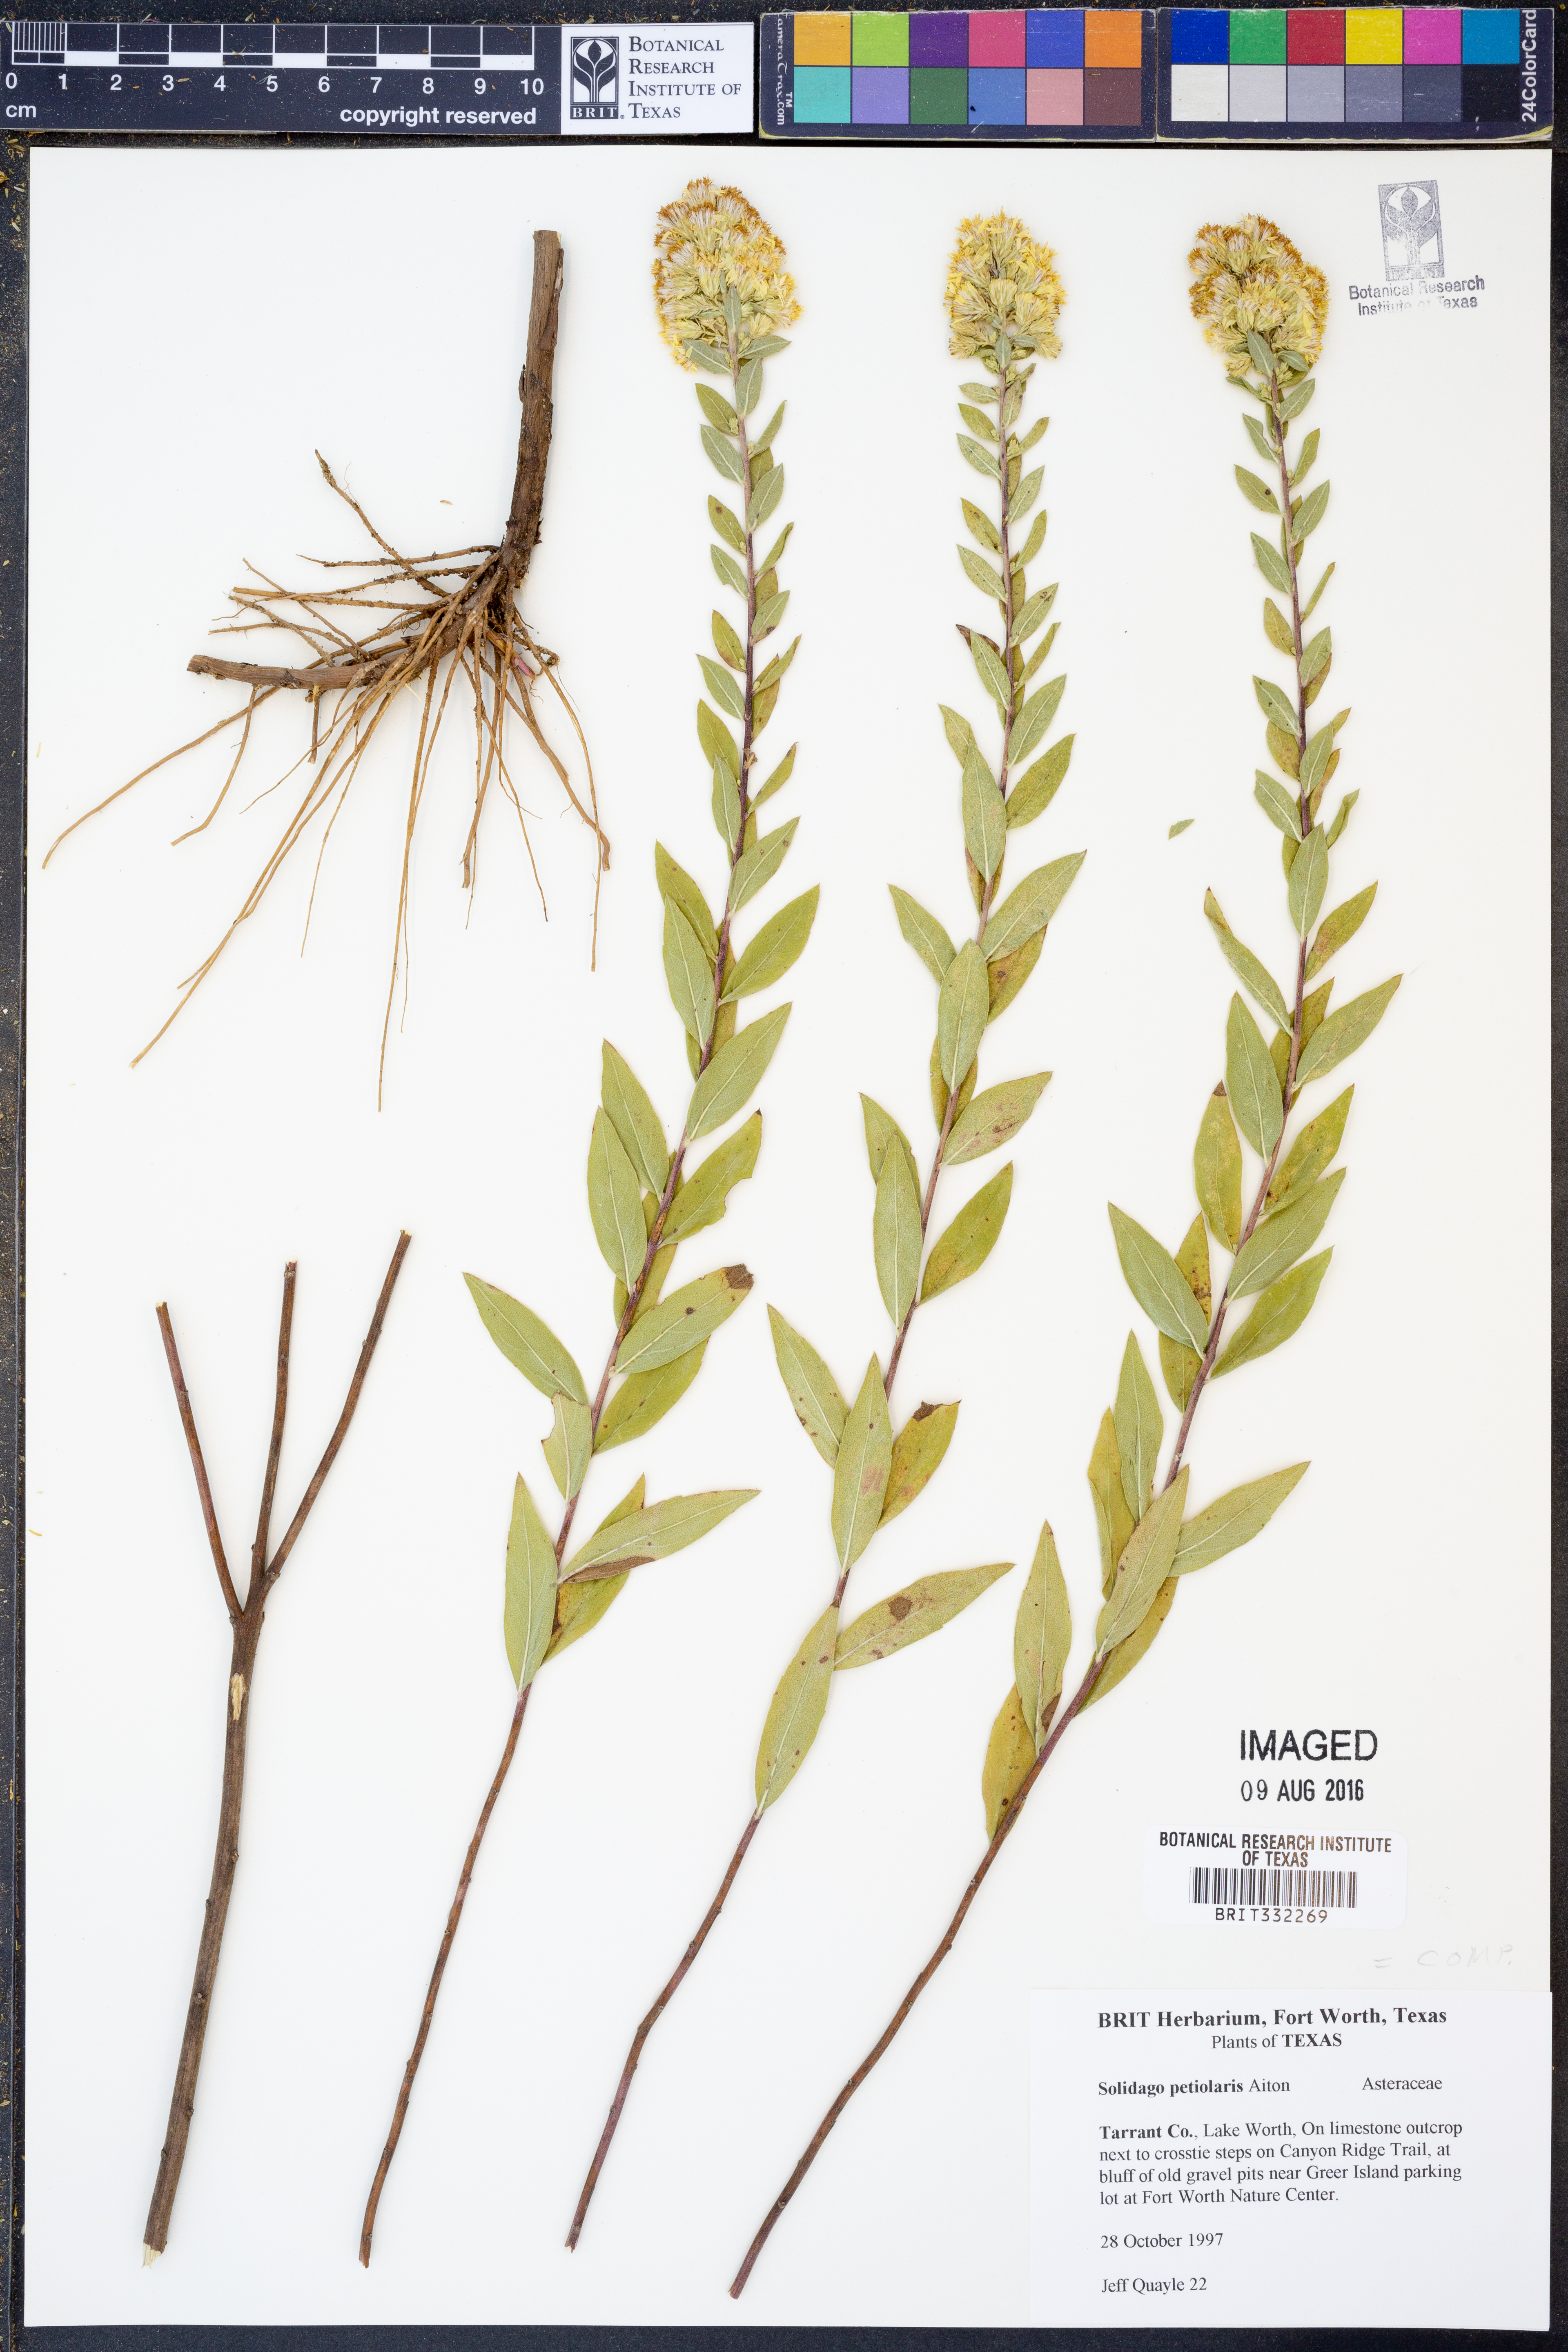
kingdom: Plantae
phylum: Tracheophyta
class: Magnoliopsida
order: Asterales
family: Asteraceae
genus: Solidago
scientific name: Solidago petiolaris
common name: Downy ragged goldenrod
